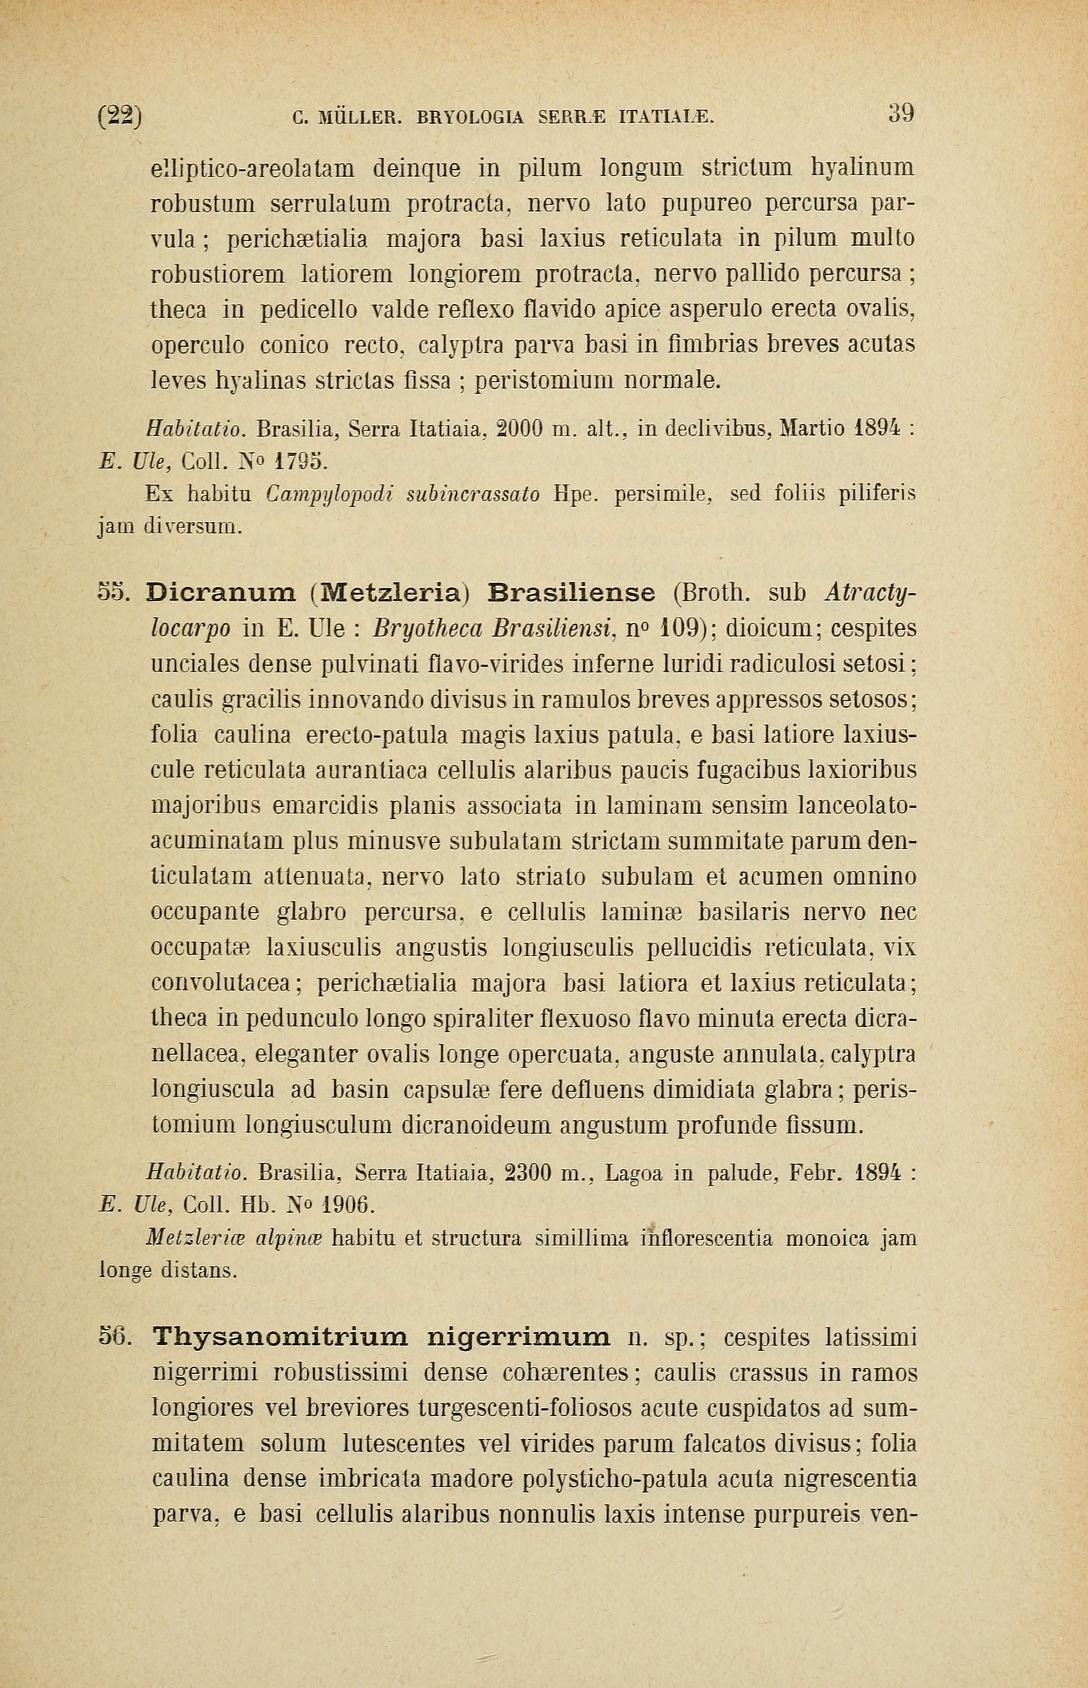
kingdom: Plantae
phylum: Bryophyta
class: Bryopsida
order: Dicranales
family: Leucobryaceae
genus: Atractylocarpus
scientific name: Atractylocarpus brasiliensis
